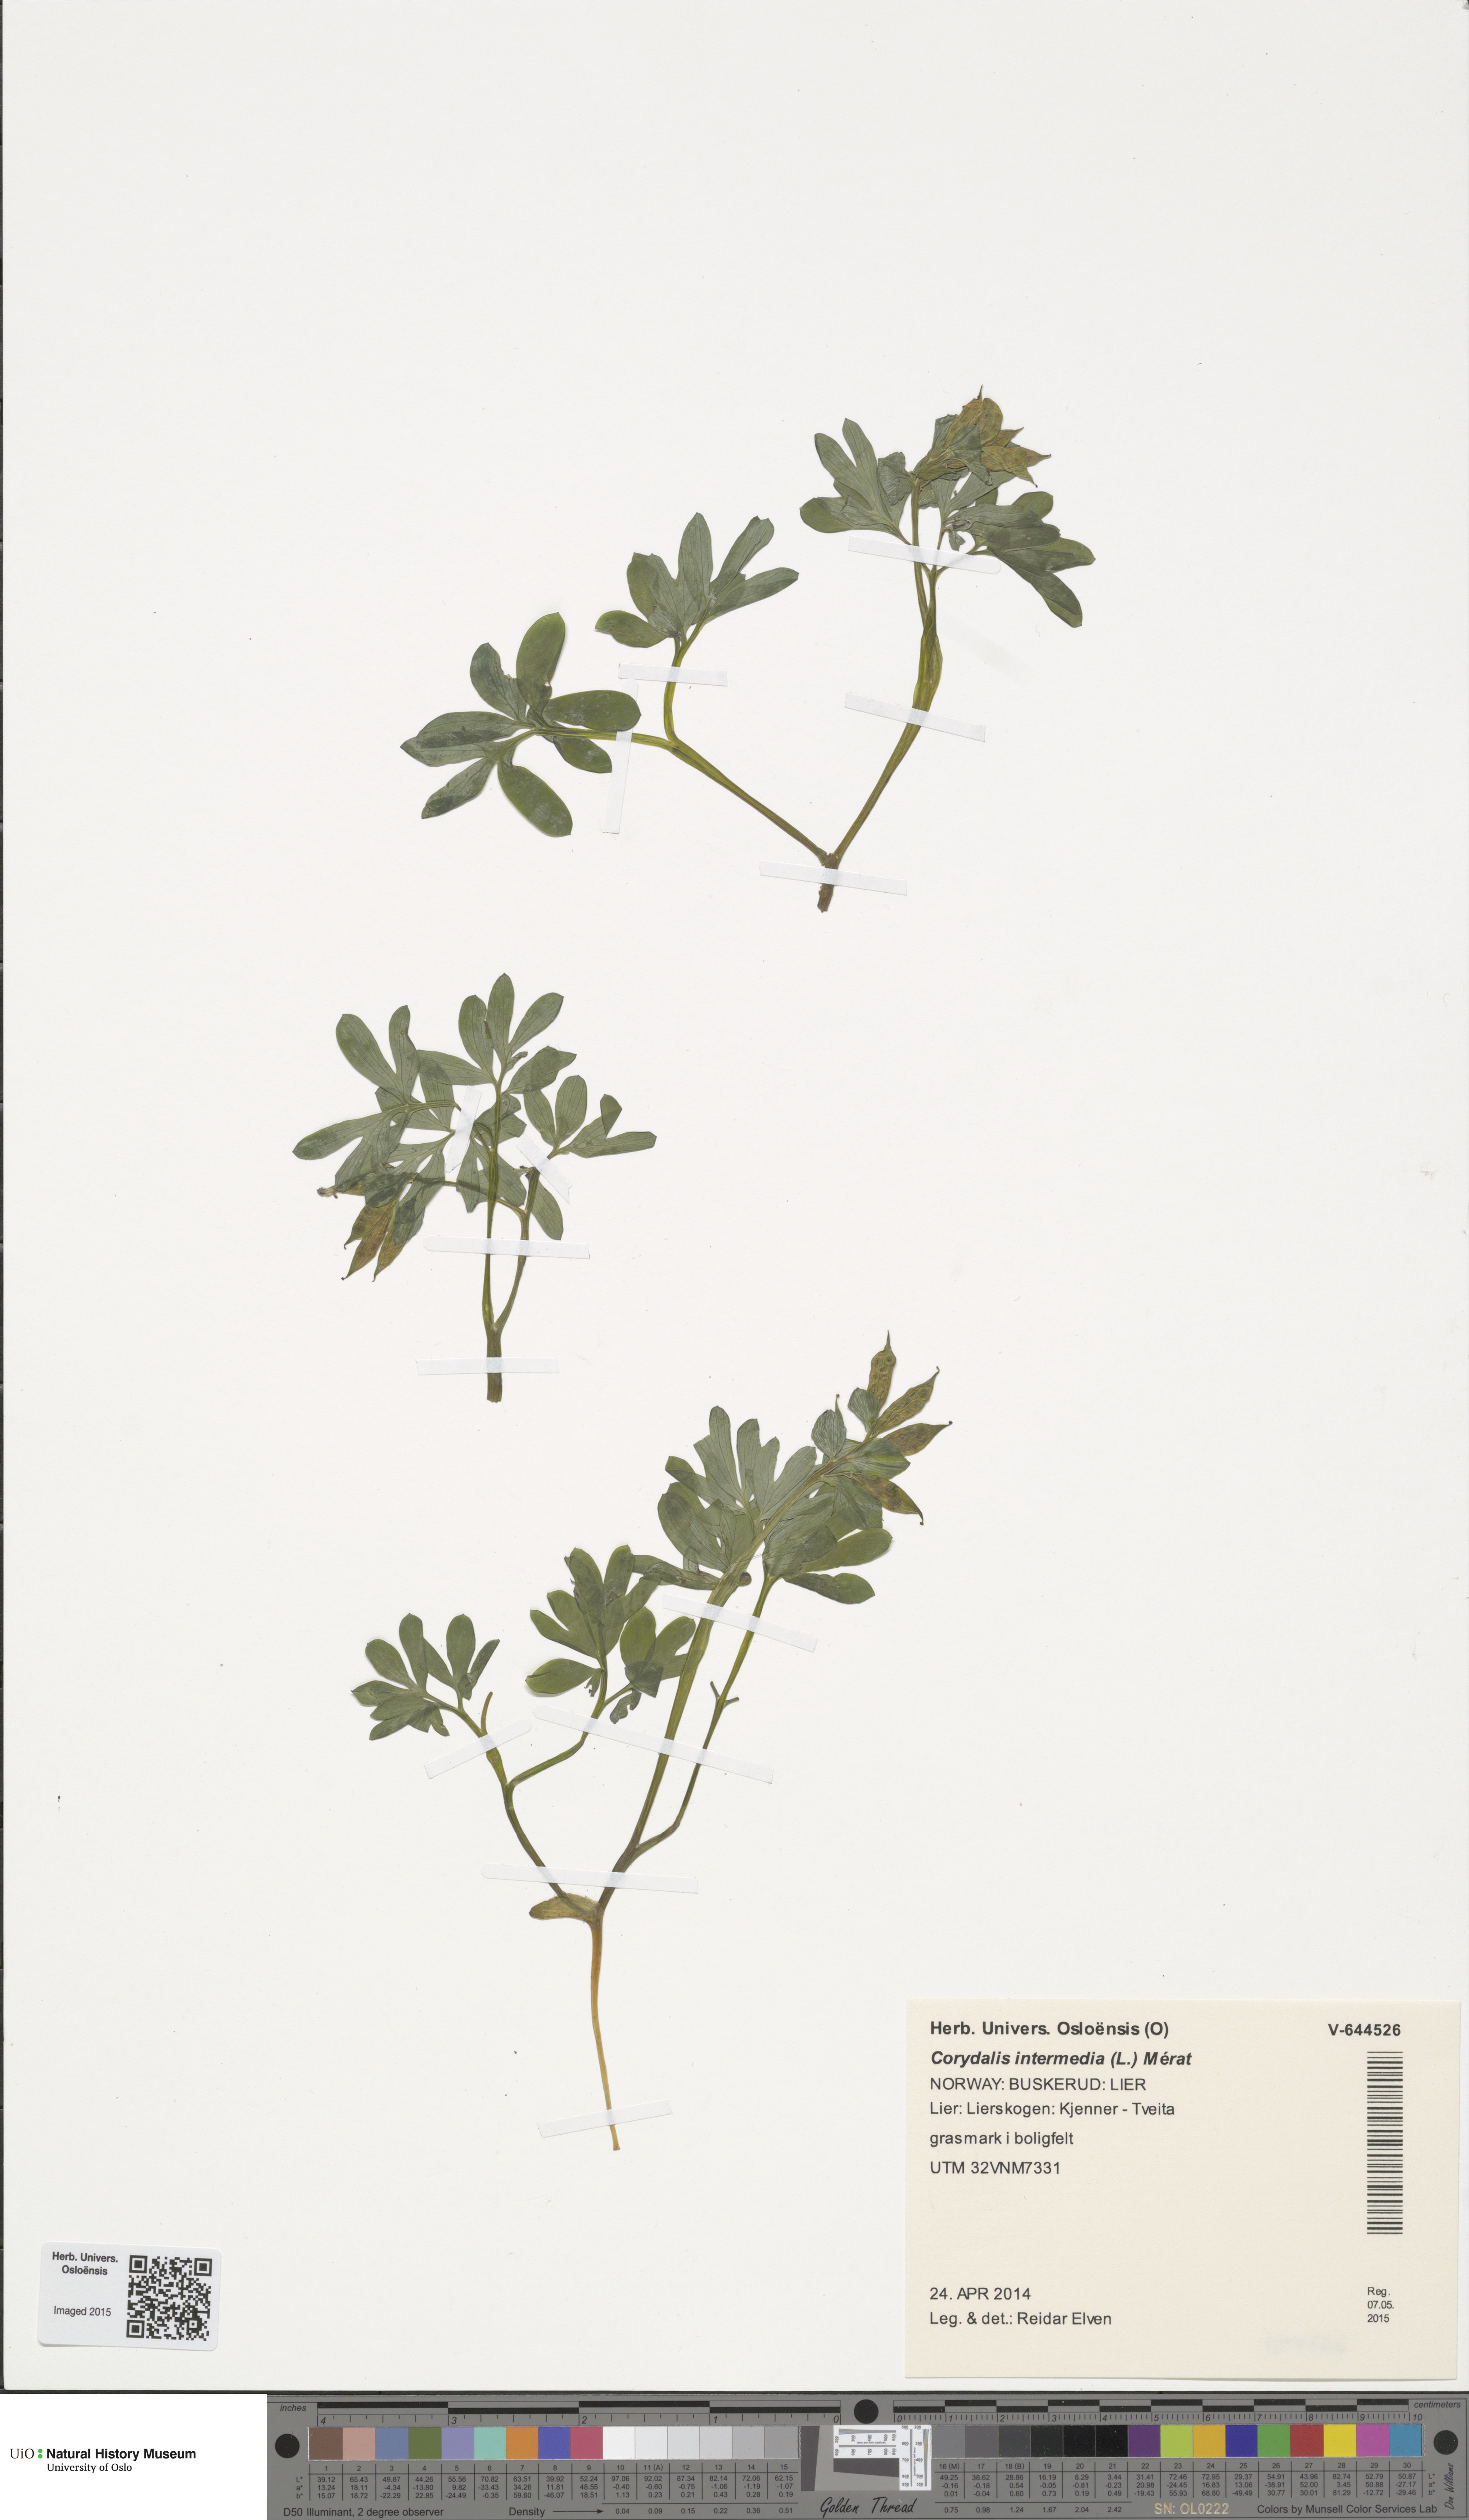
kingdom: Plantae
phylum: Tracheophyta
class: Magnoliopsida
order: Ranunculales
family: Papaveraceae
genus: Corydalis
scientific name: Corydalis intermedia
